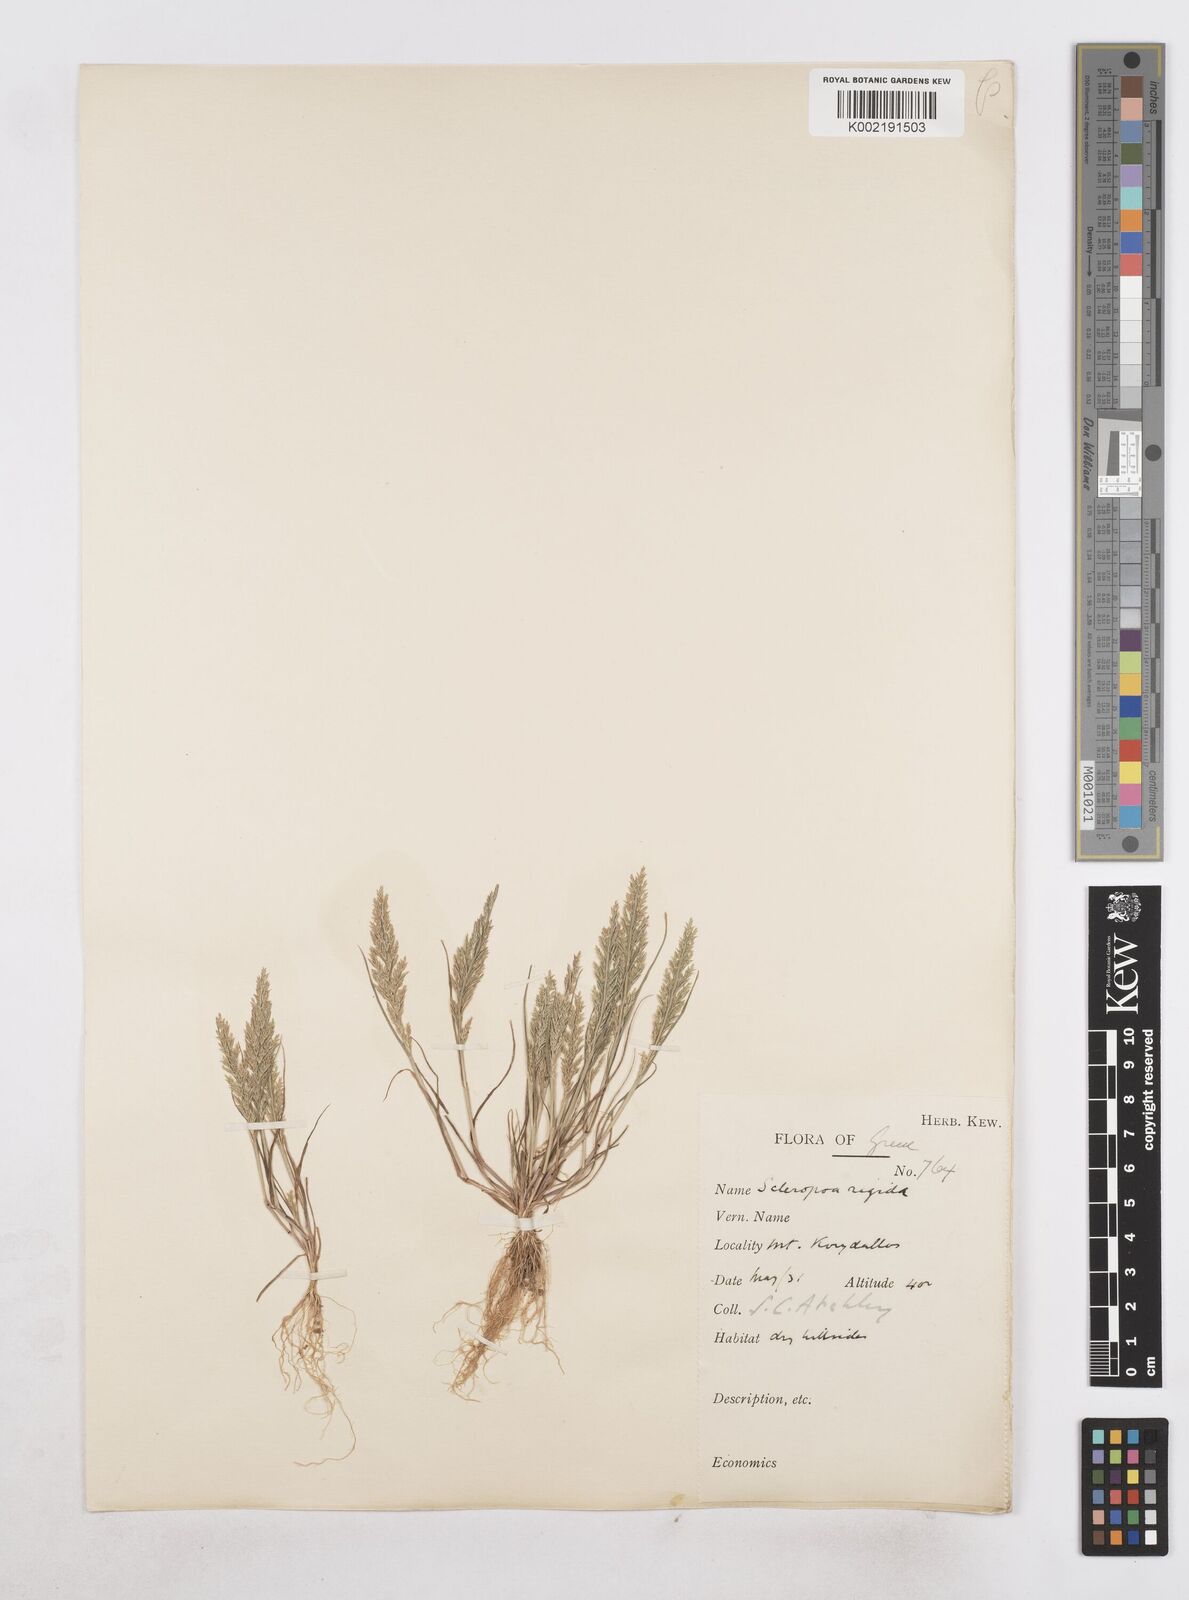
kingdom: Plantae
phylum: Tracheophyta
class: Liliopsida
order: Poales
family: Poaceae
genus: Catapodium
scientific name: Catapodium rigidum
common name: Fern-grass
